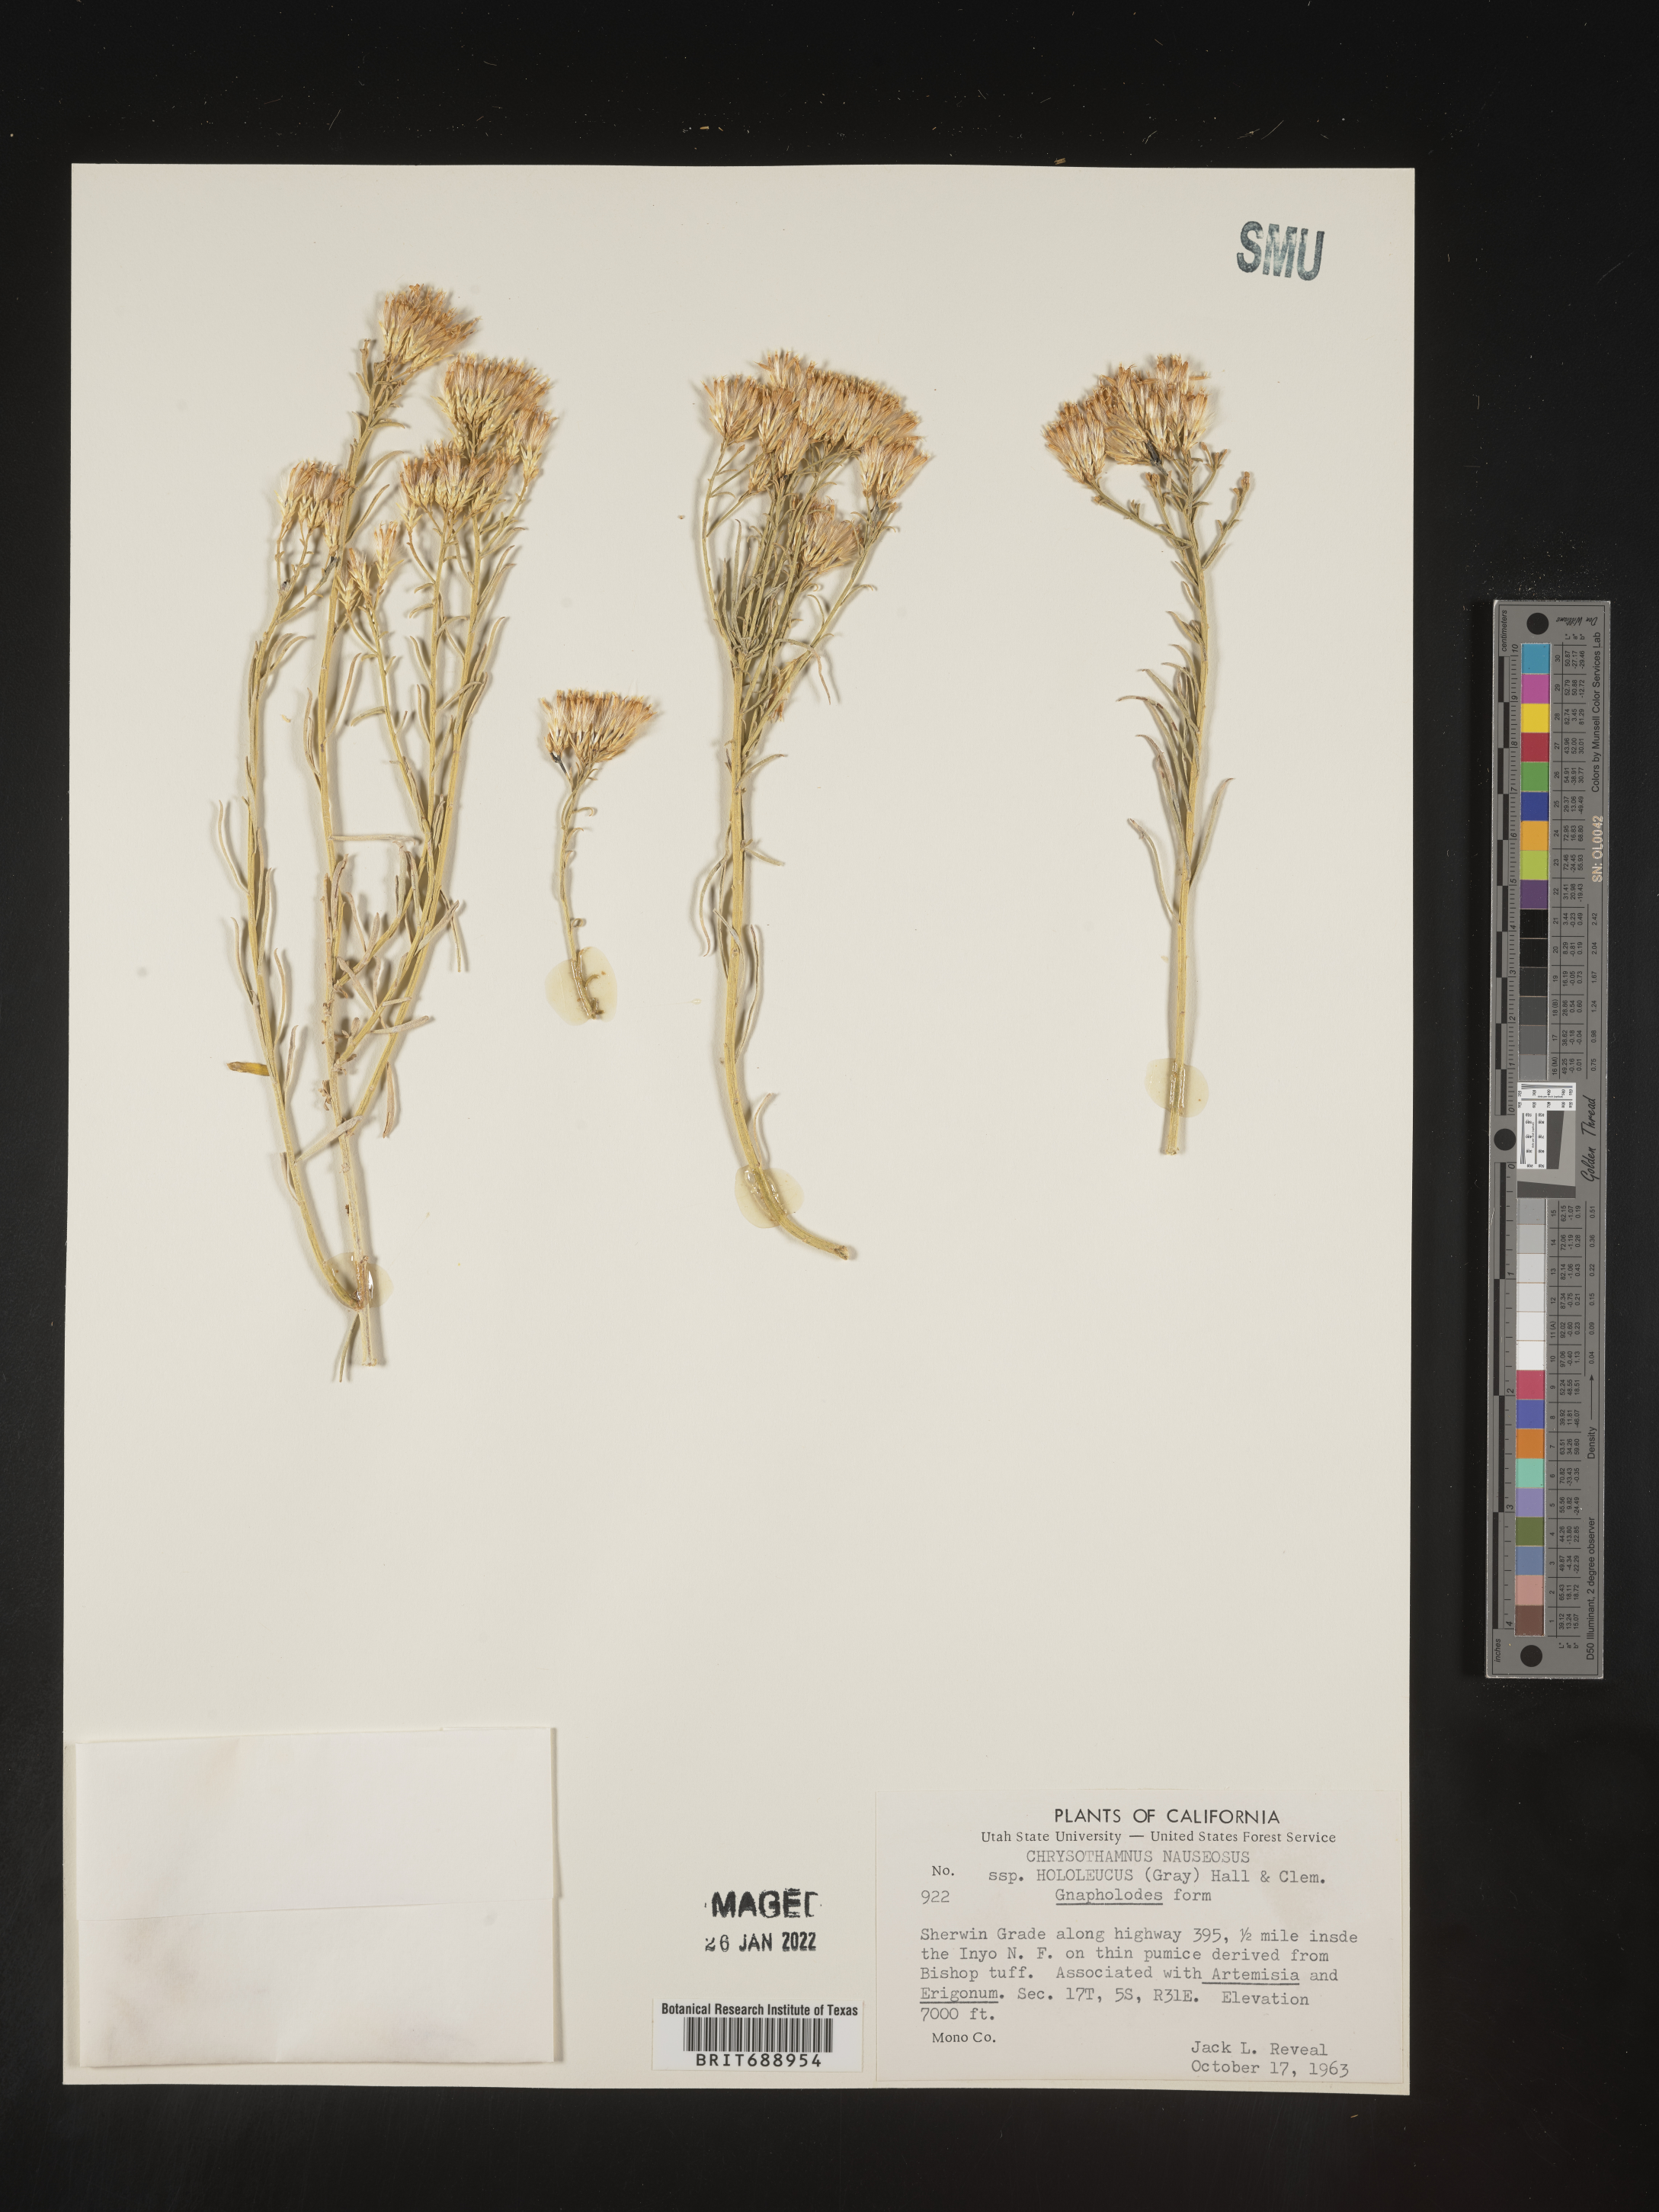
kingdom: Plantae
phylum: Tracheophyta
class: Magnoliopsida
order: Asterales
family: Asteraceae
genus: Ericameria
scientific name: Ericameria nauseosa
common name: Rubber rabbitbrush
